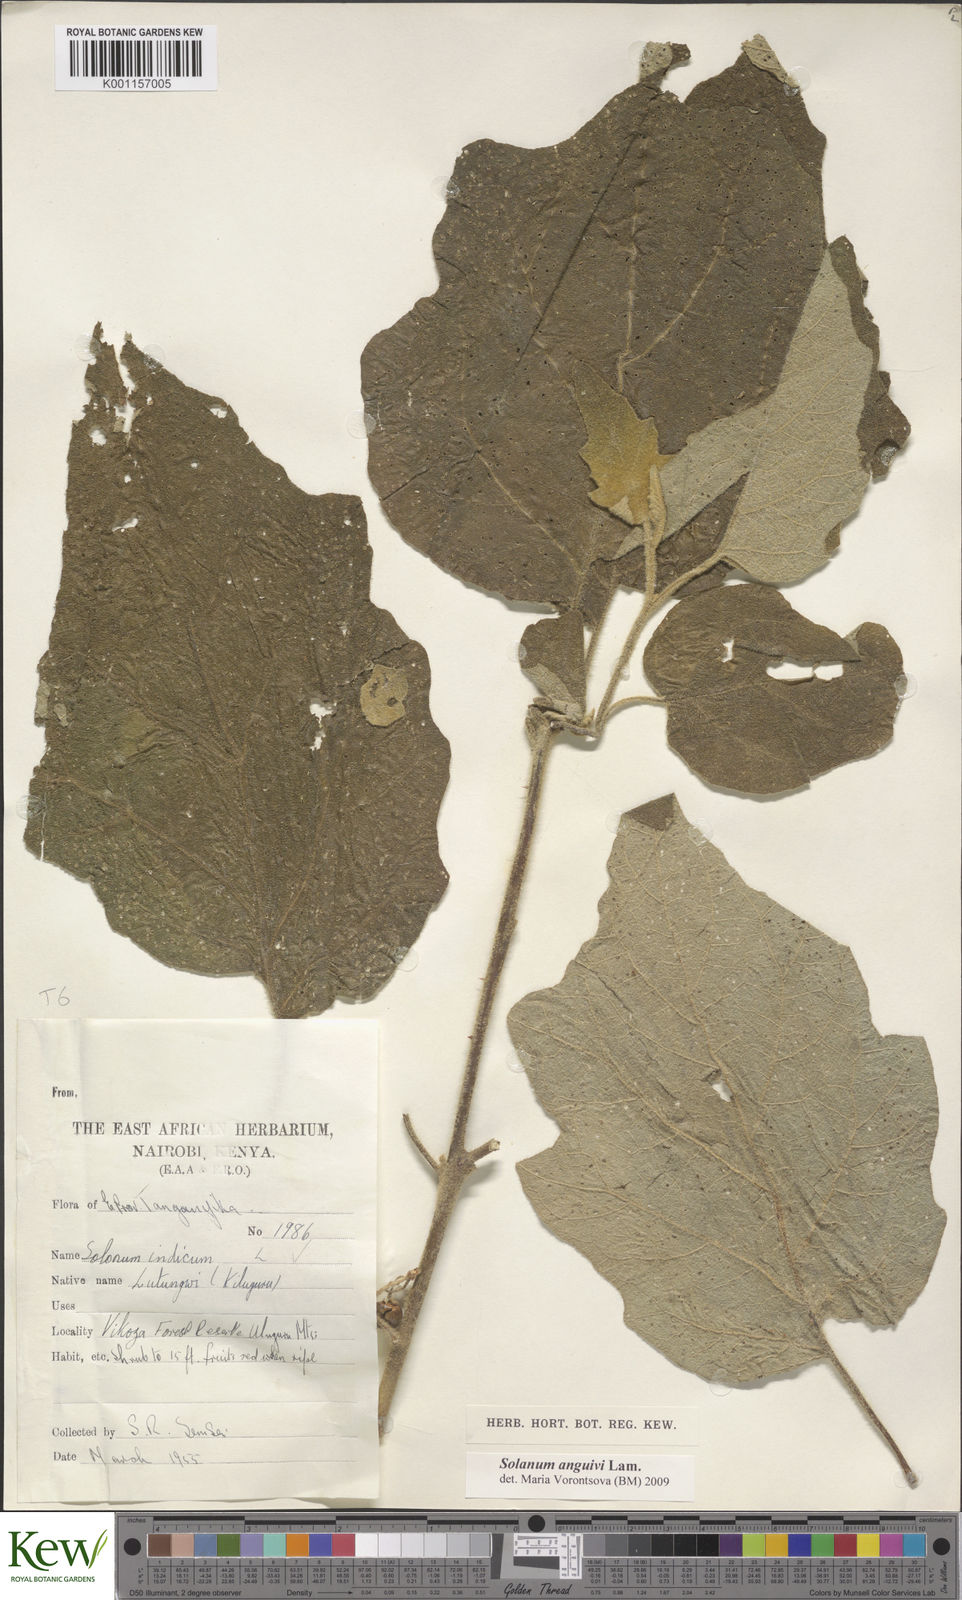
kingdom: Plantae
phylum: Tracheophyta
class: Magnoliopsida
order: Solanales
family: Solanaceae
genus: Solanum
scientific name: Solanum anguivi
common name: Forest bitterberry
